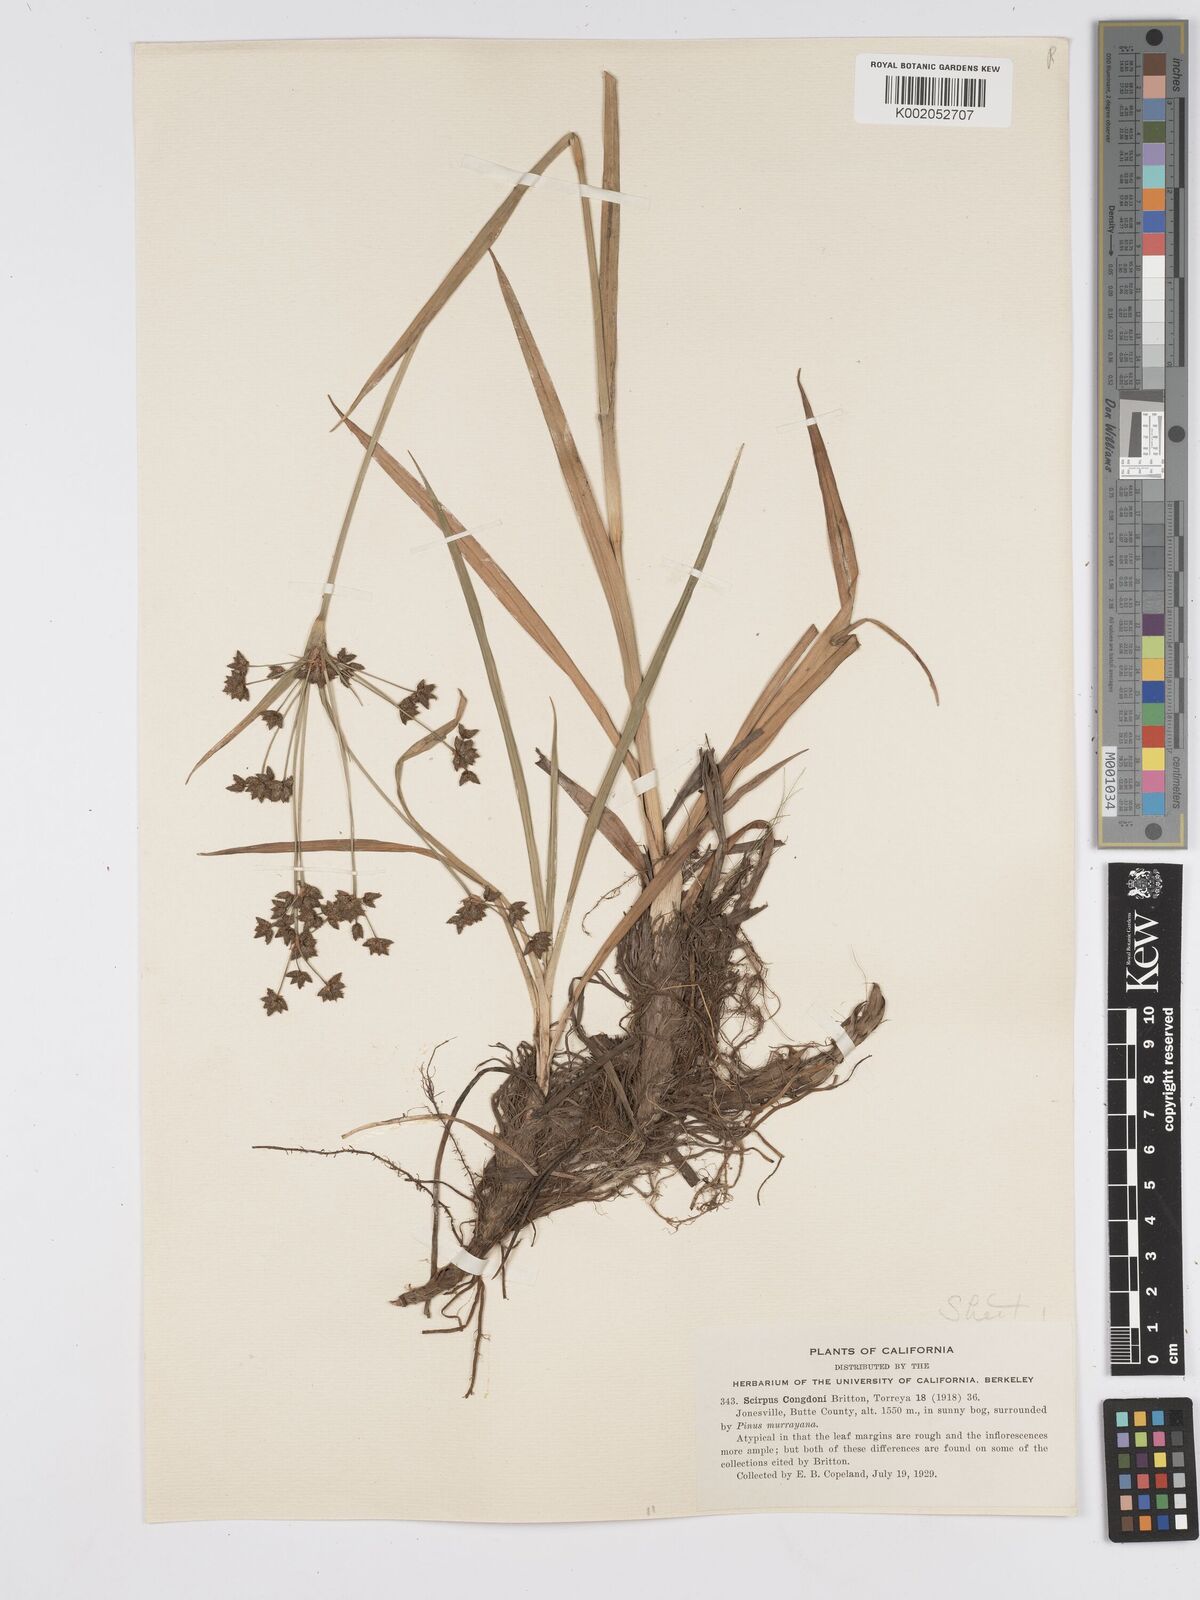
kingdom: Plantae
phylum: Tracheophyta
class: Liliopsida
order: Poales
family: Cyperaceae
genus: Scirpus
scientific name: Scirpus congdonii
